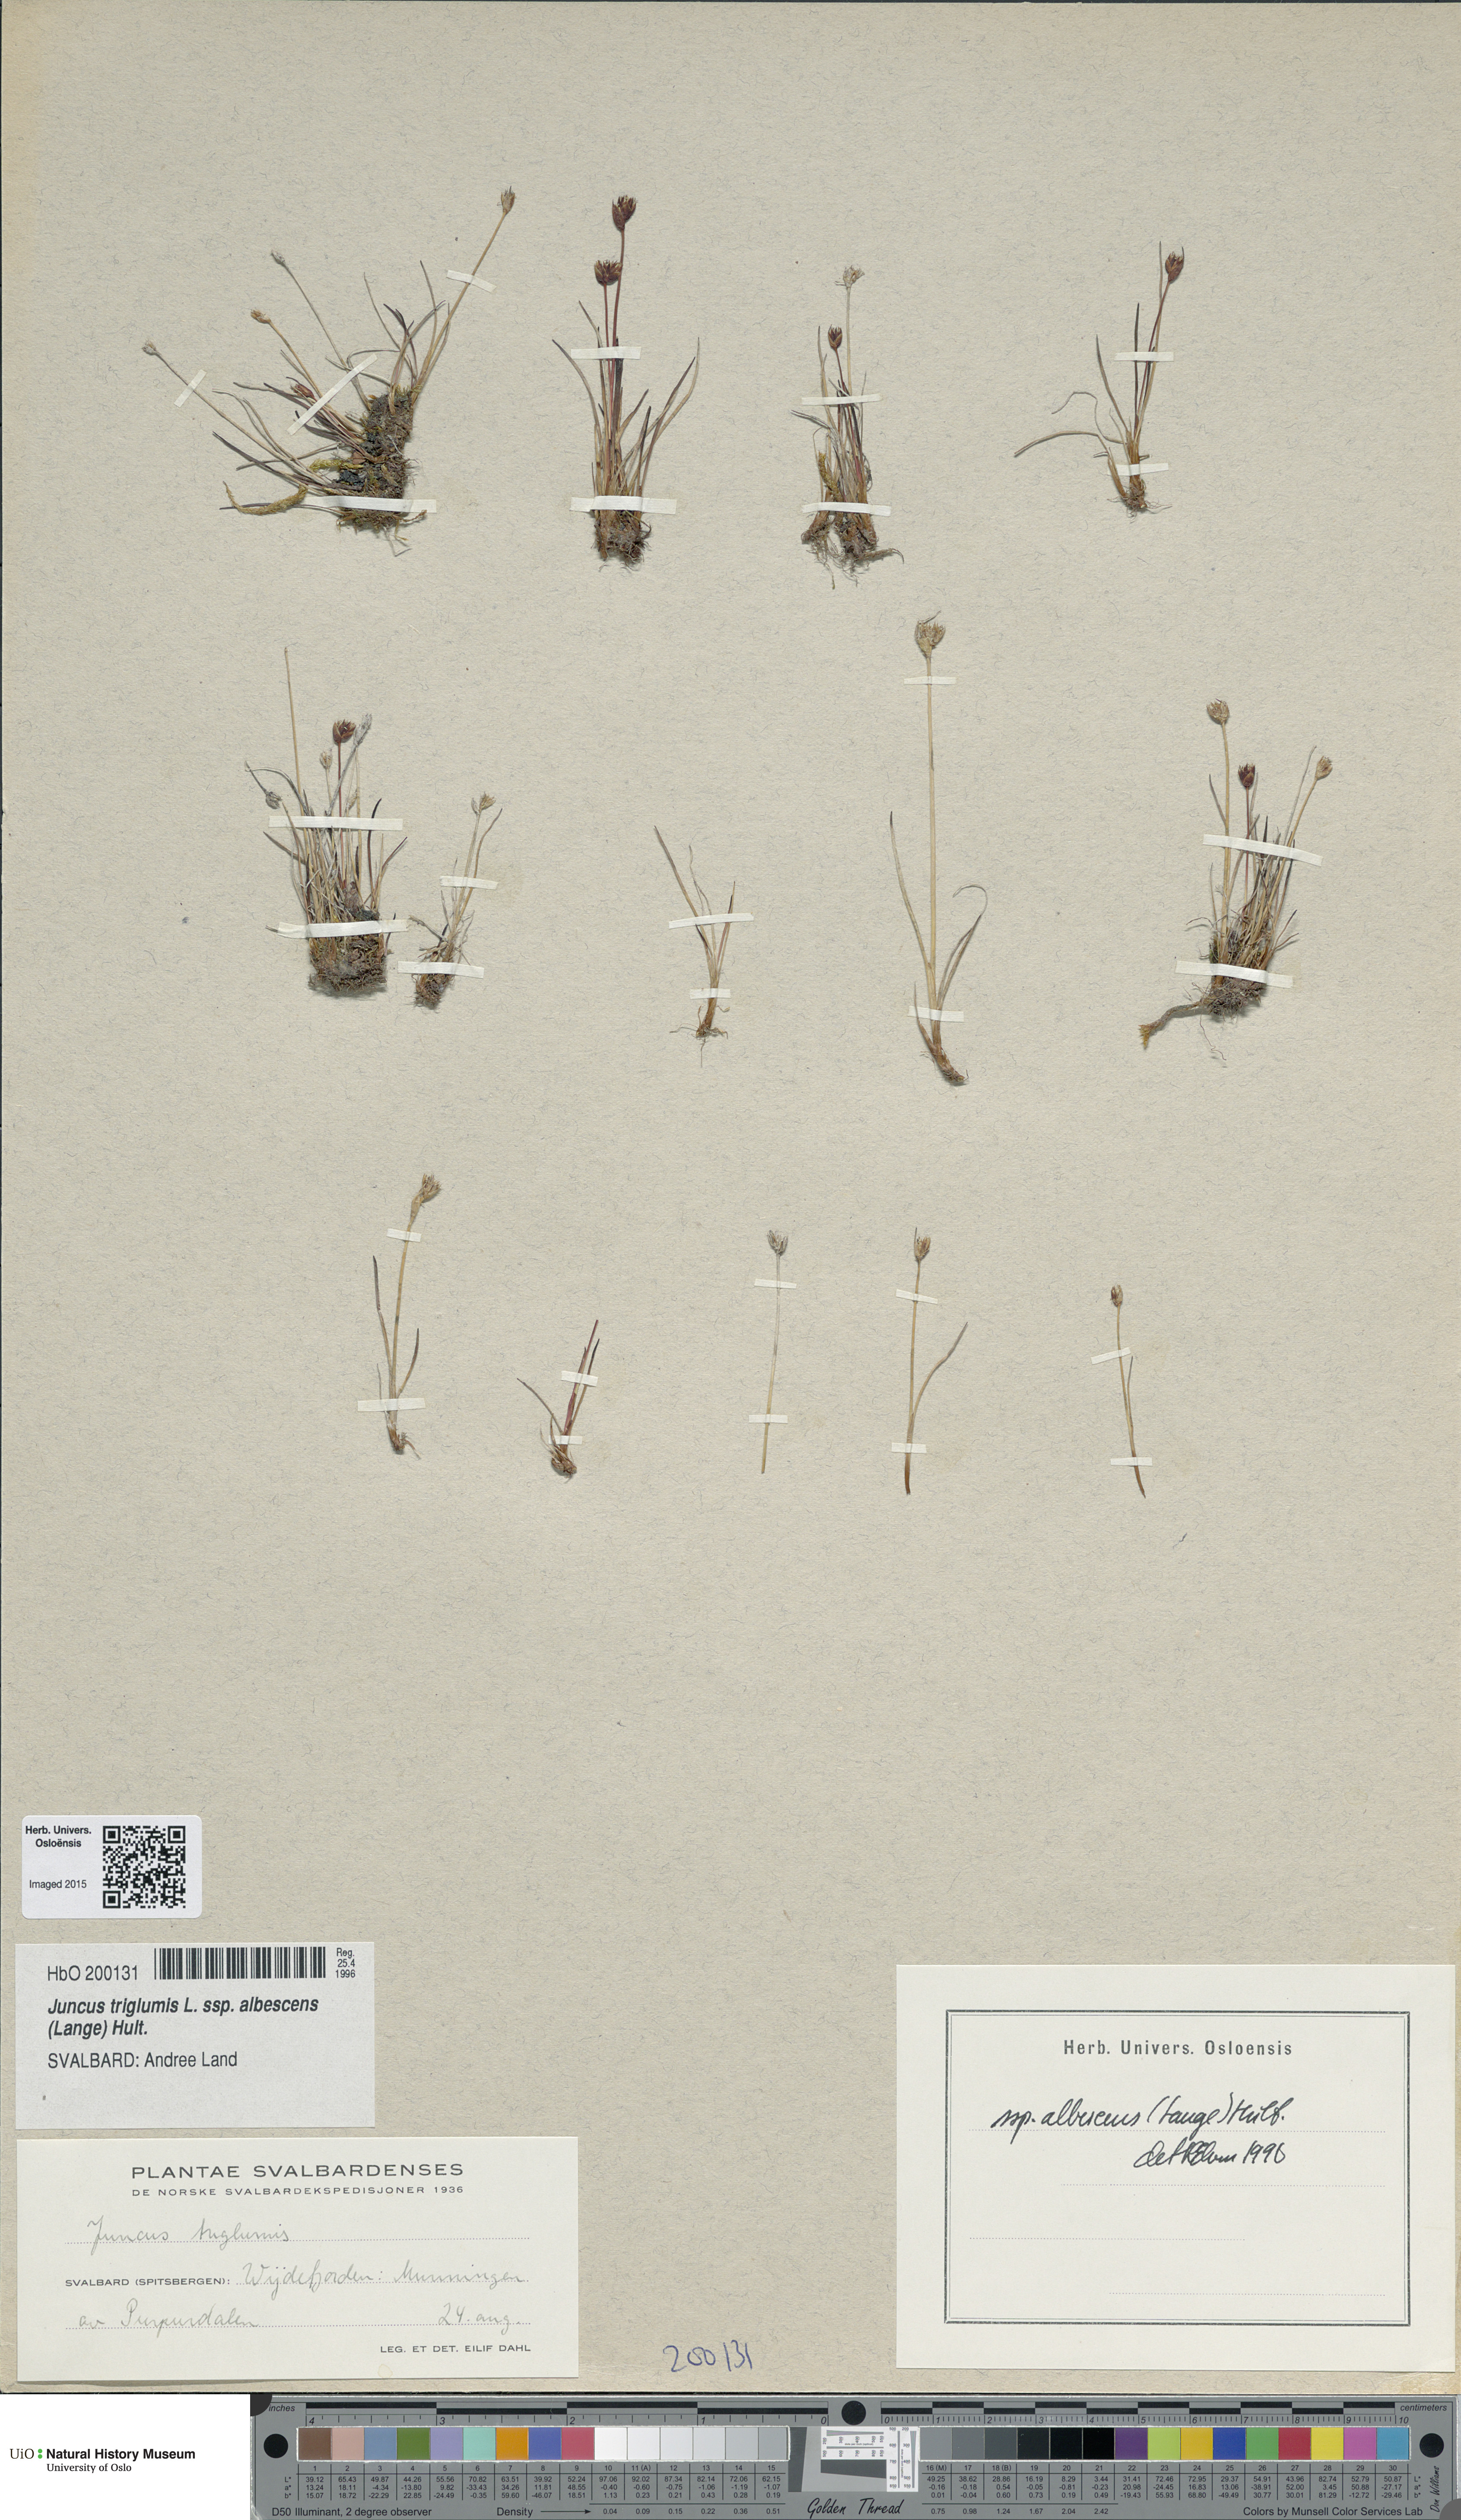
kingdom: Plantae
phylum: Tracheophyta
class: Liliopsida
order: Poales
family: Juncaceae
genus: Juncus
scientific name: Juncus albescens
